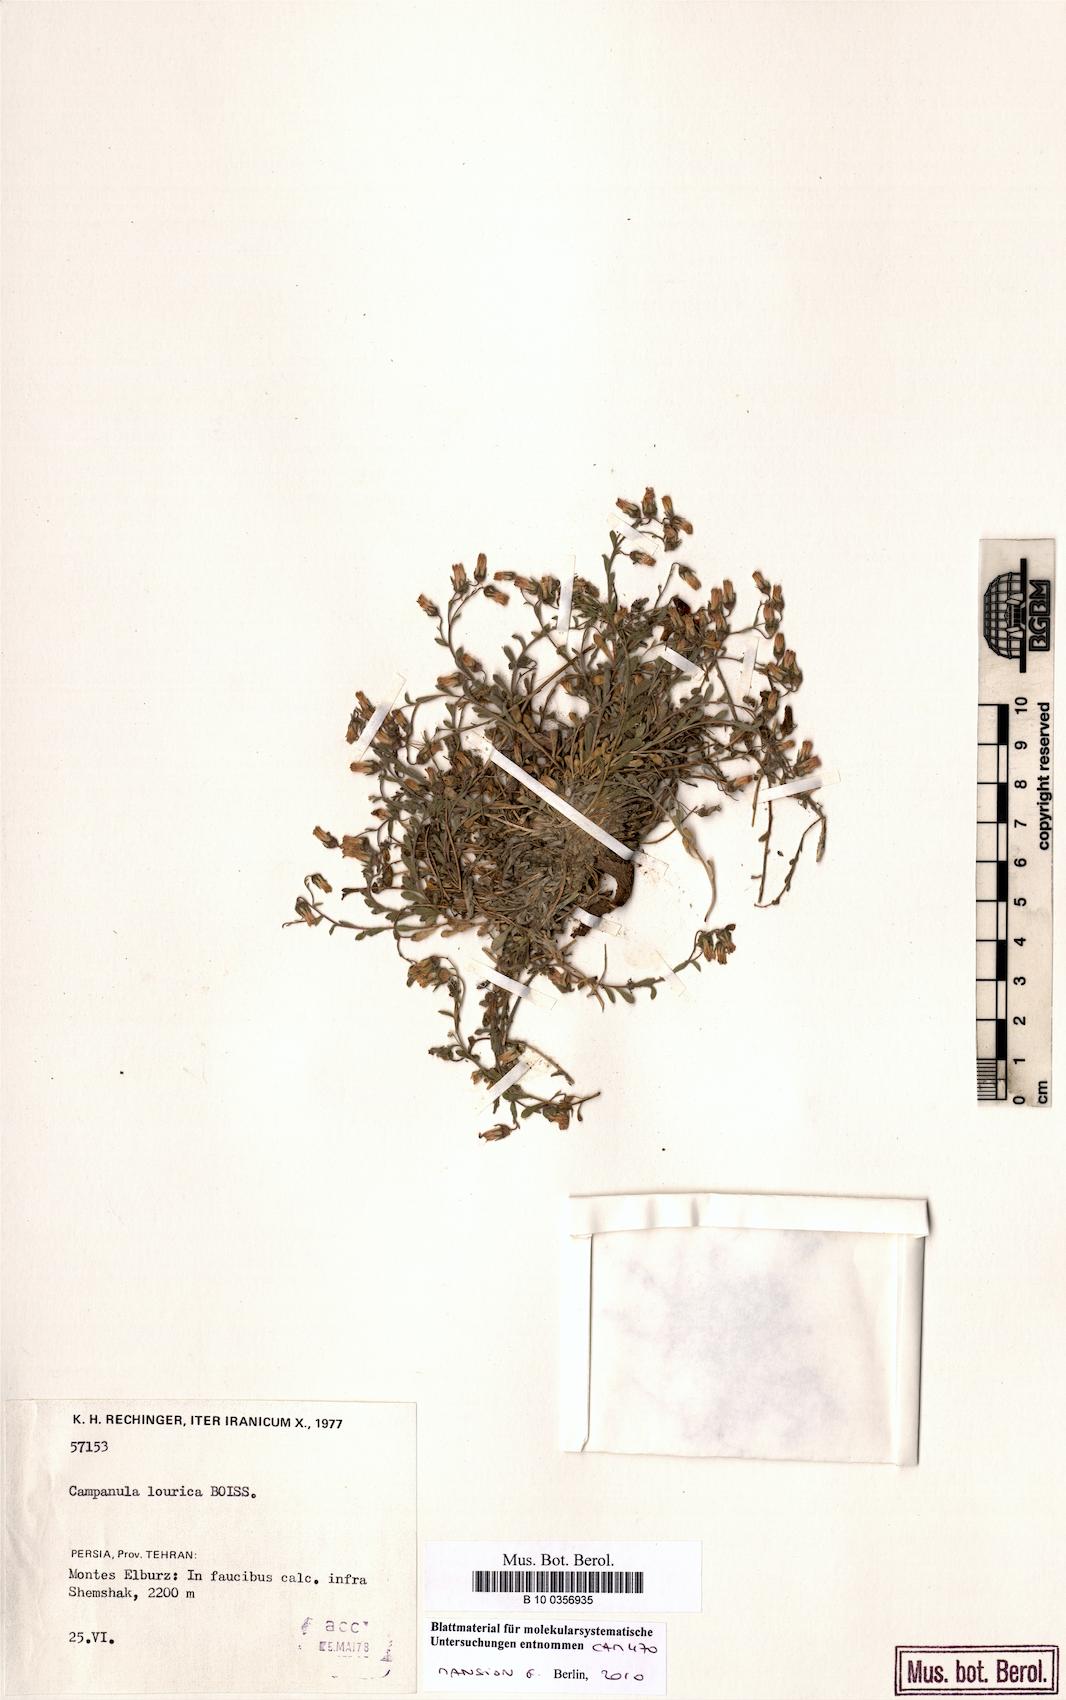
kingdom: Plantae
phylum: Tracheophyta
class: Magnoliopsida
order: Asterales
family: Campanulaceae
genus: Campanula
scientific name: Campanula lourica
